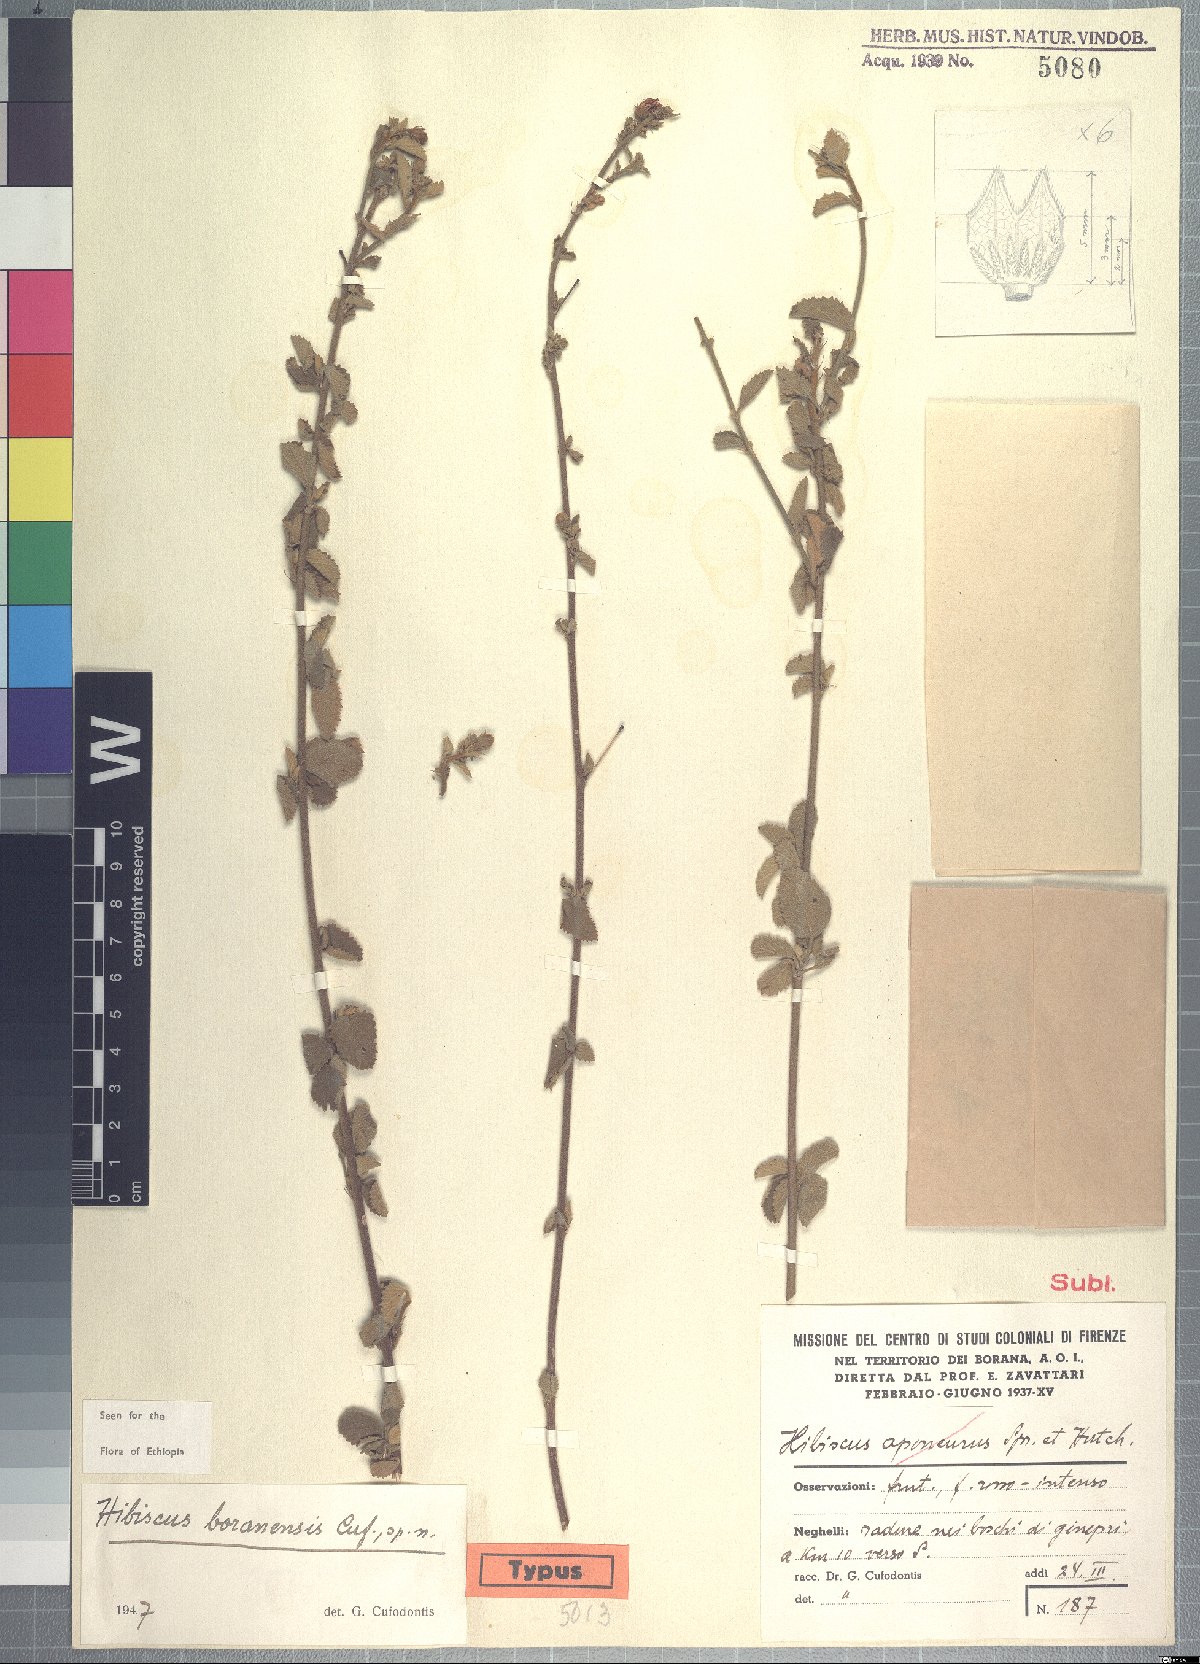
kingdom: Plantae
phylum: Tracheophyta
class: Magnoliopsida
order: Malvales
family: Malvaceae
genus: Hibiscus
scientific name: Hibiscus boranensis
